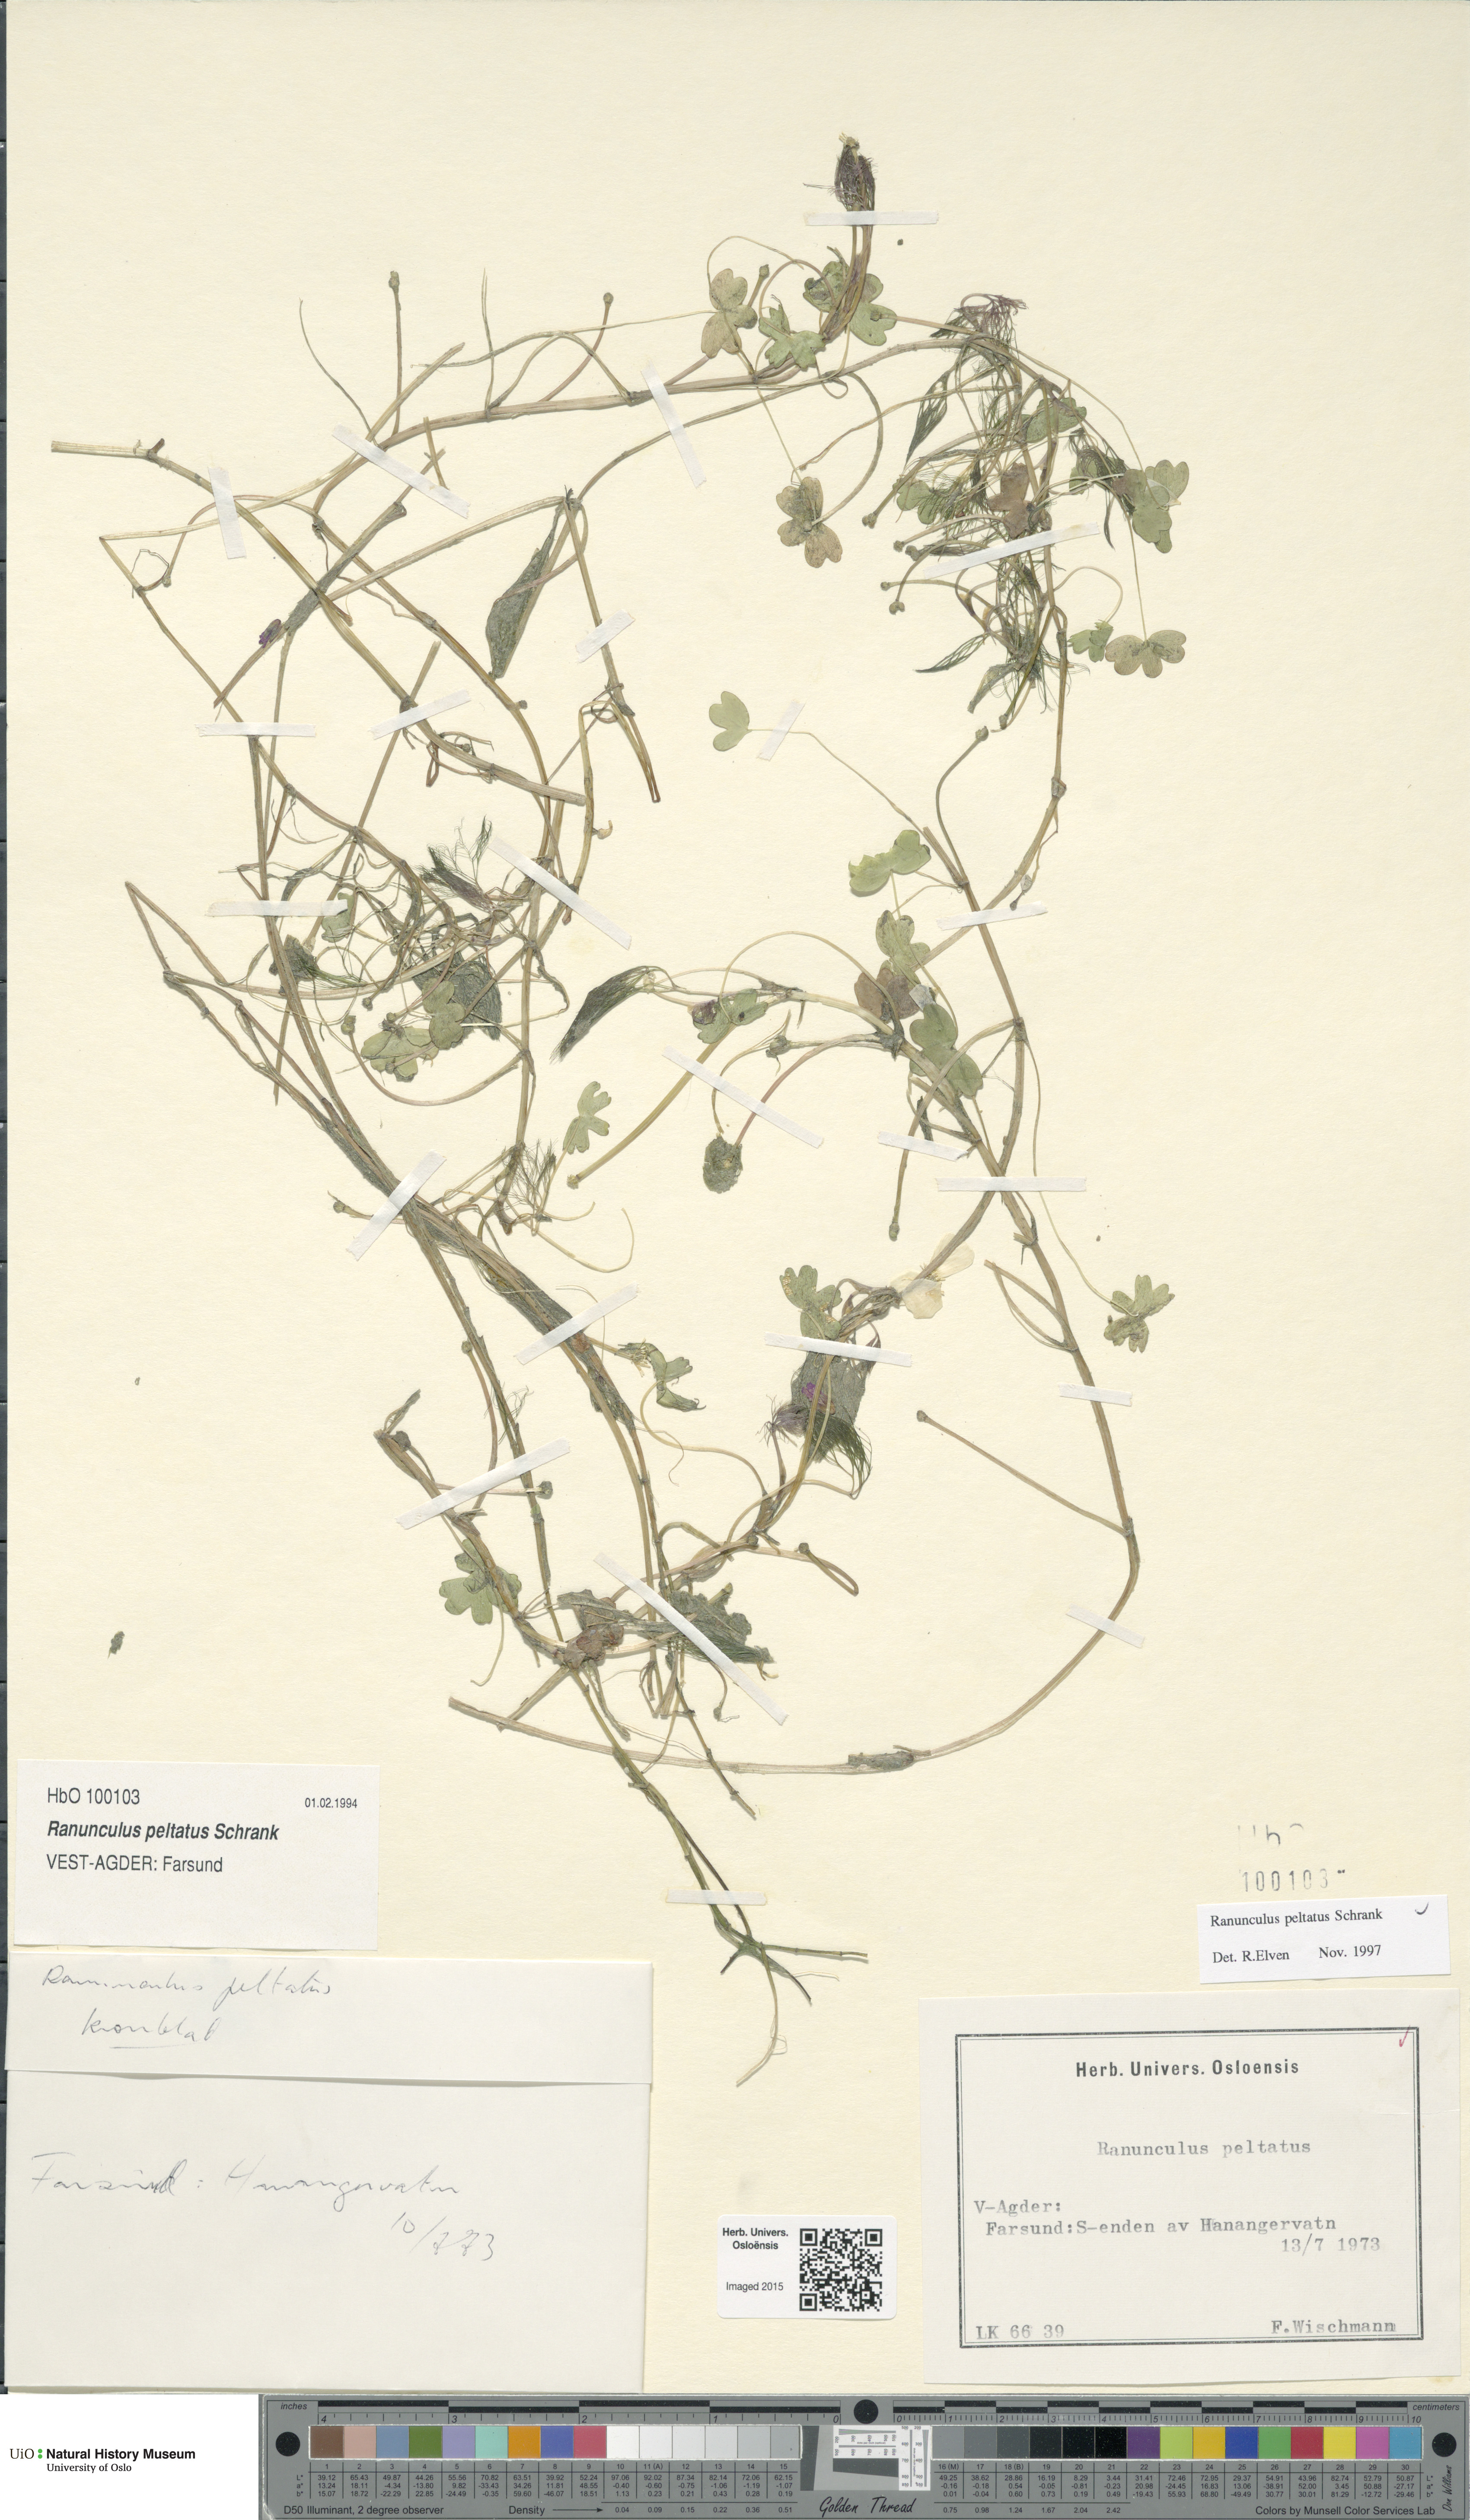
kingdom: Plantae
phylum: Tracheophyta
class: Magnoliopsida
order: Ranunculales
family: Ranunculaceae
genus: Ranunculus
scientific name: Ranunculus peltatus
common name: Pond water-crowfoot
